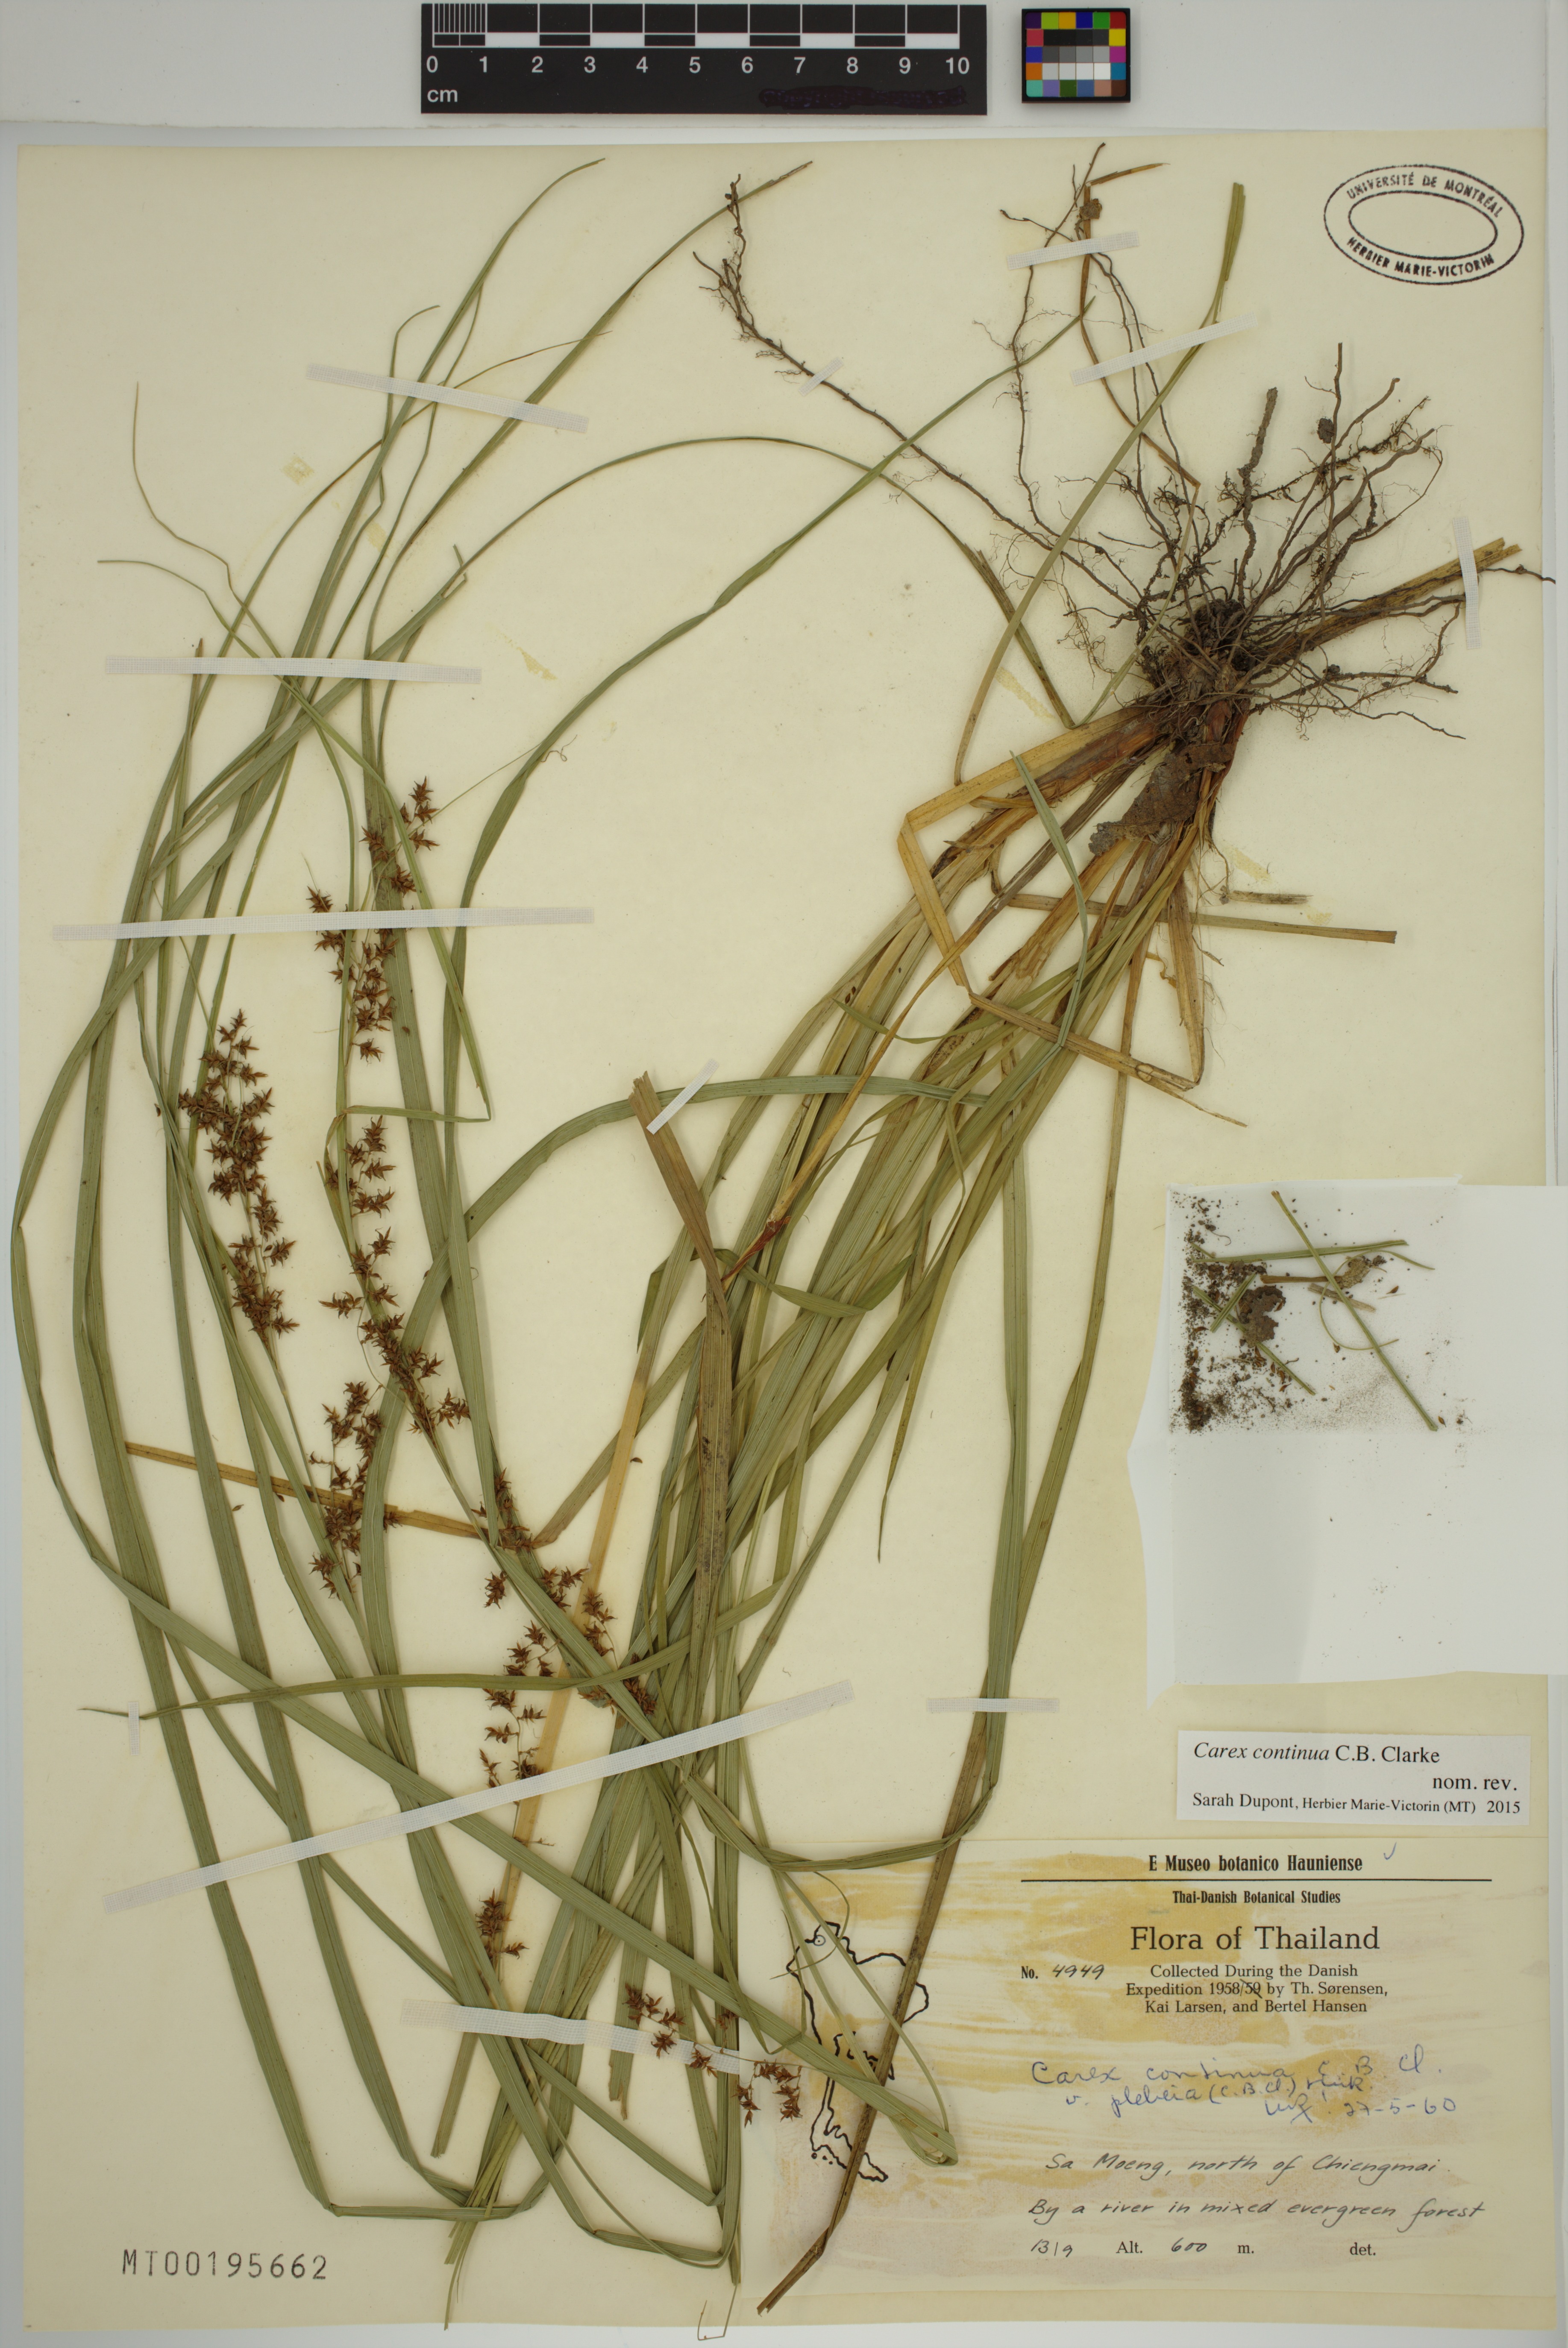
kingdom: Plantae
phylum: Tracheophyta
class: Liliopsida
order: Poales
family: Cyperaceae
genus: Carex
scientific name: Carex continua
